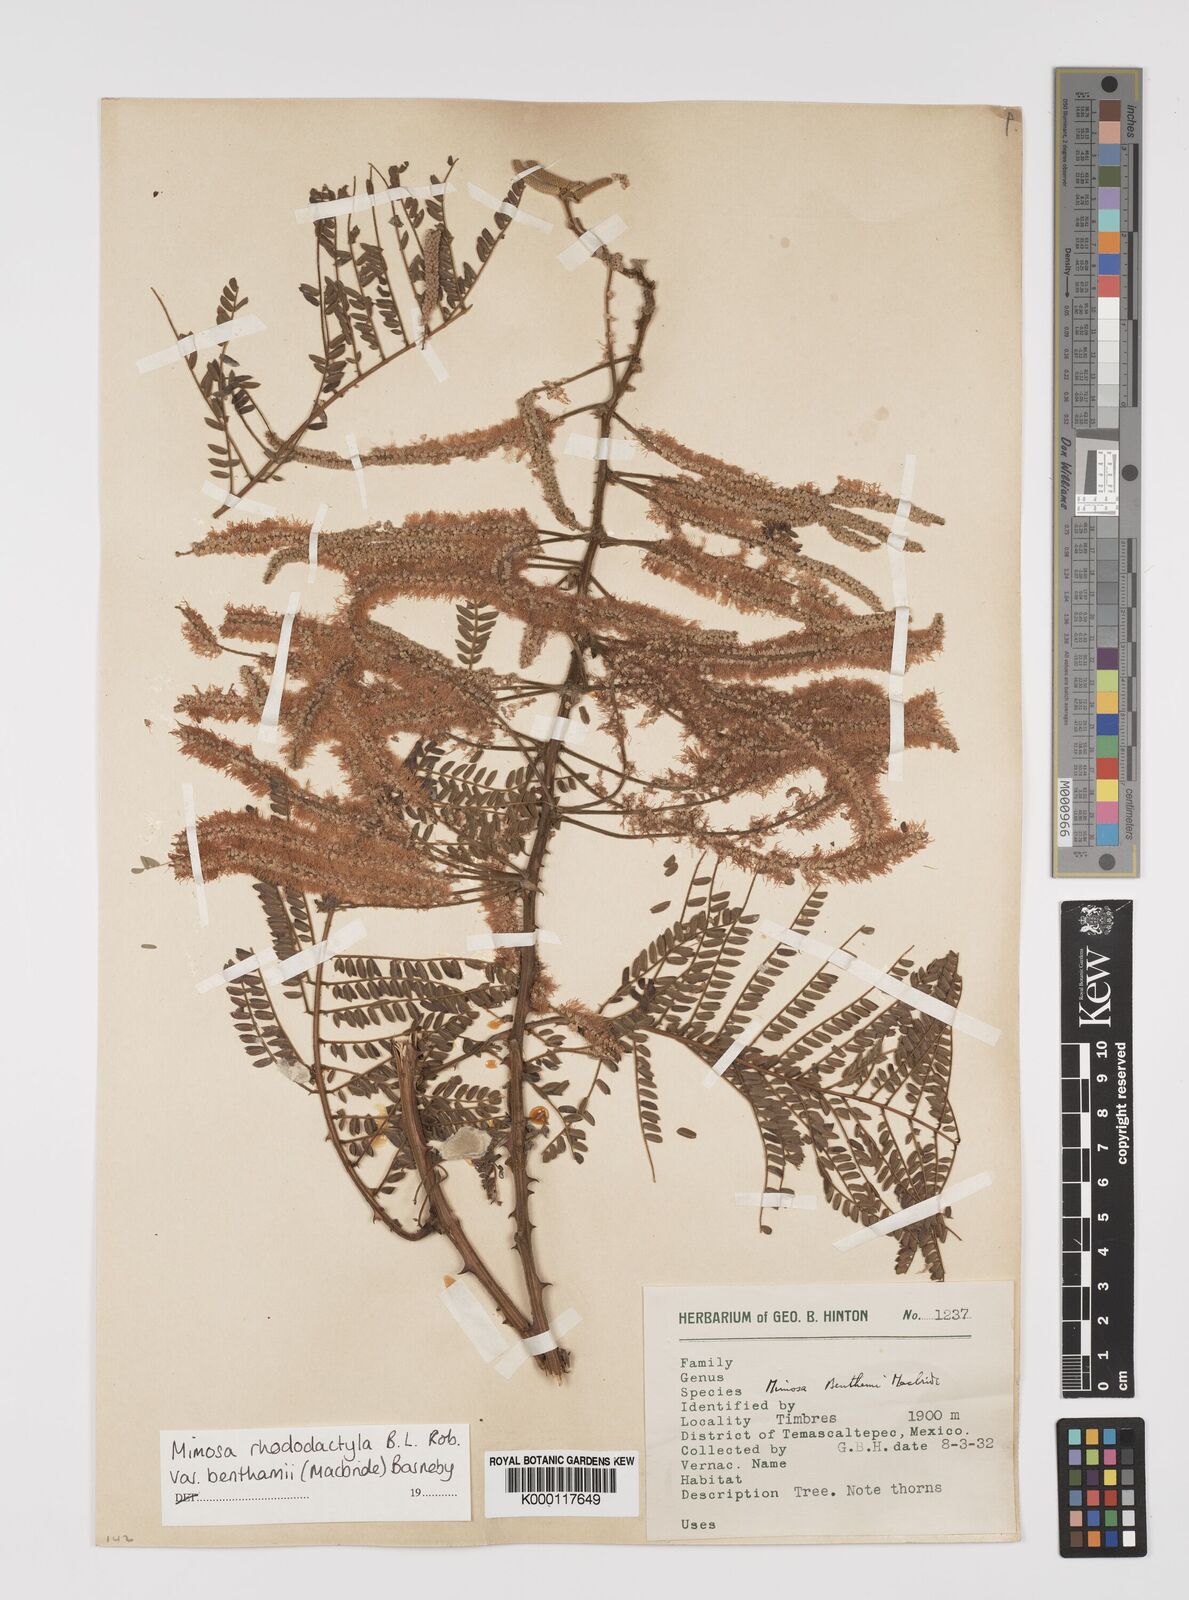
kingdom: Plantae
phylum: Tracheophyta
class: Magnoliopsida
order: Fabales
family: Fabaceae
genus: Mimosa
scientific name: Mimosa benthamii
